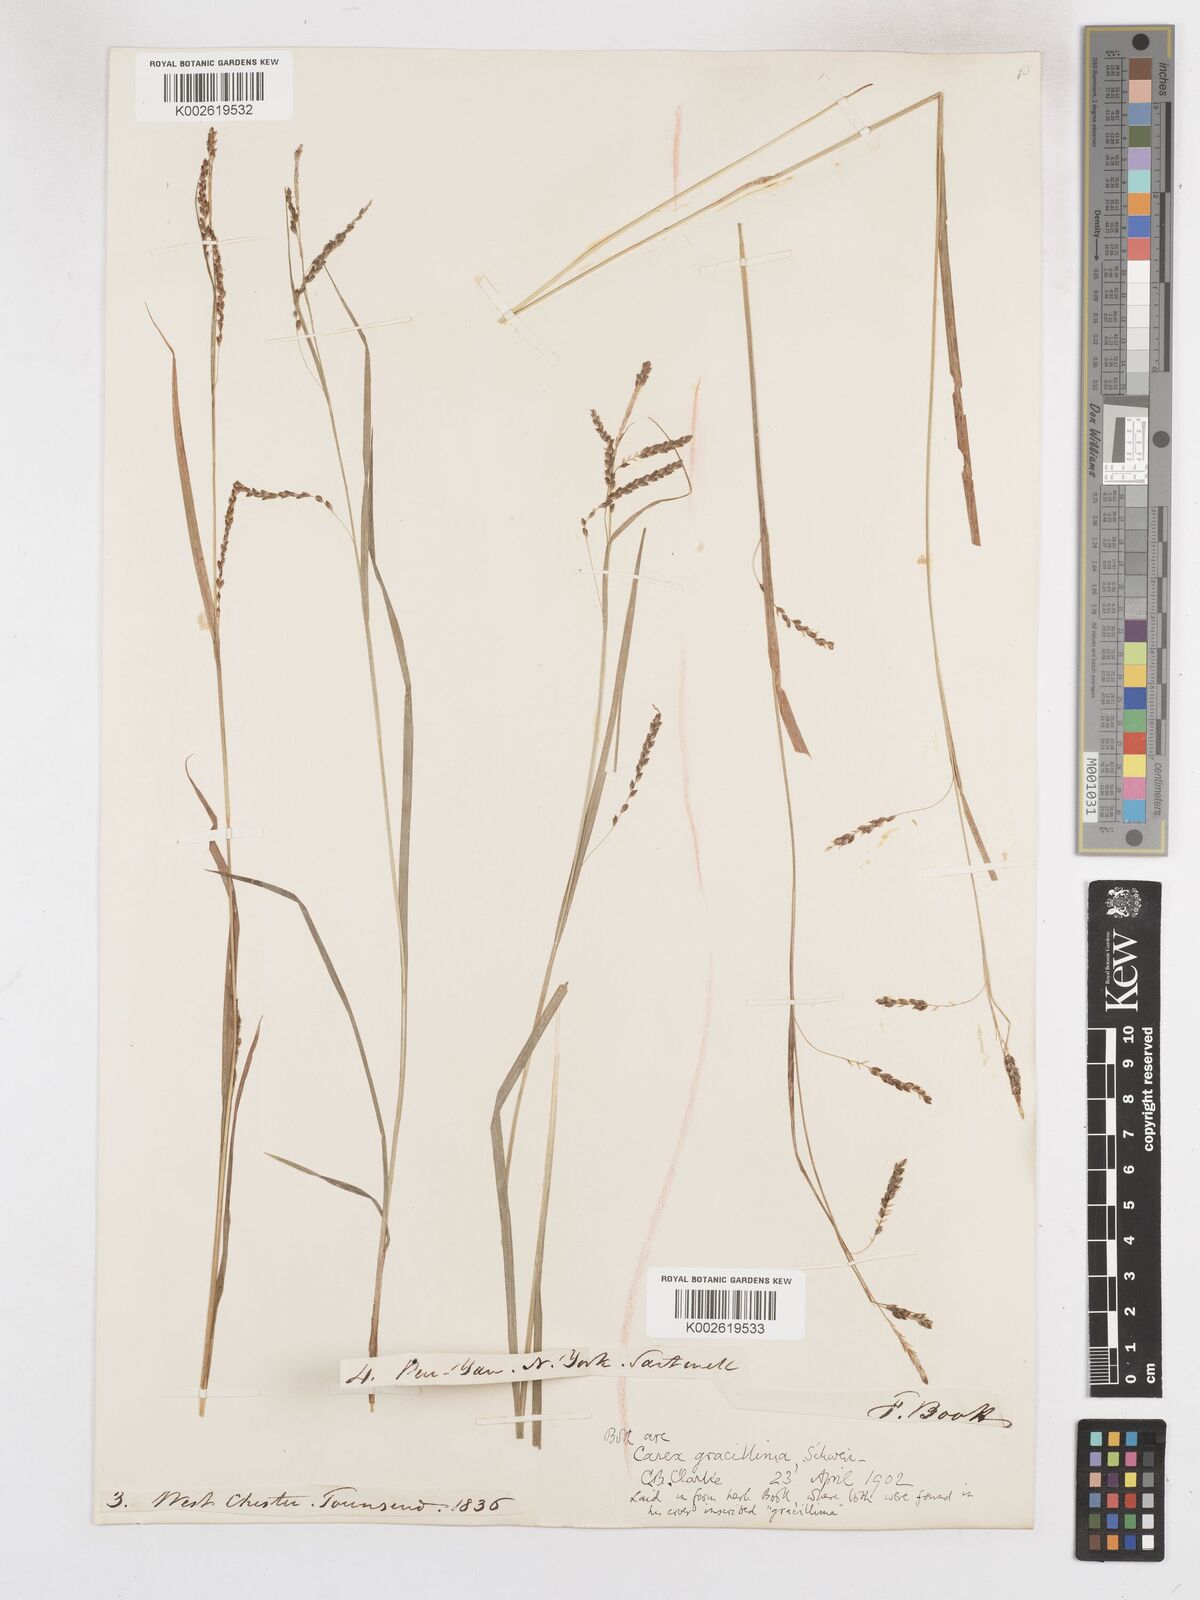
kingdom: Plantae
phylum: Tracheophyta
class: Liliopsida
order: Poales
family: Cyperaceae
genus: Carex
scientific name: Carex gracillima
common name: Graceful sedge
